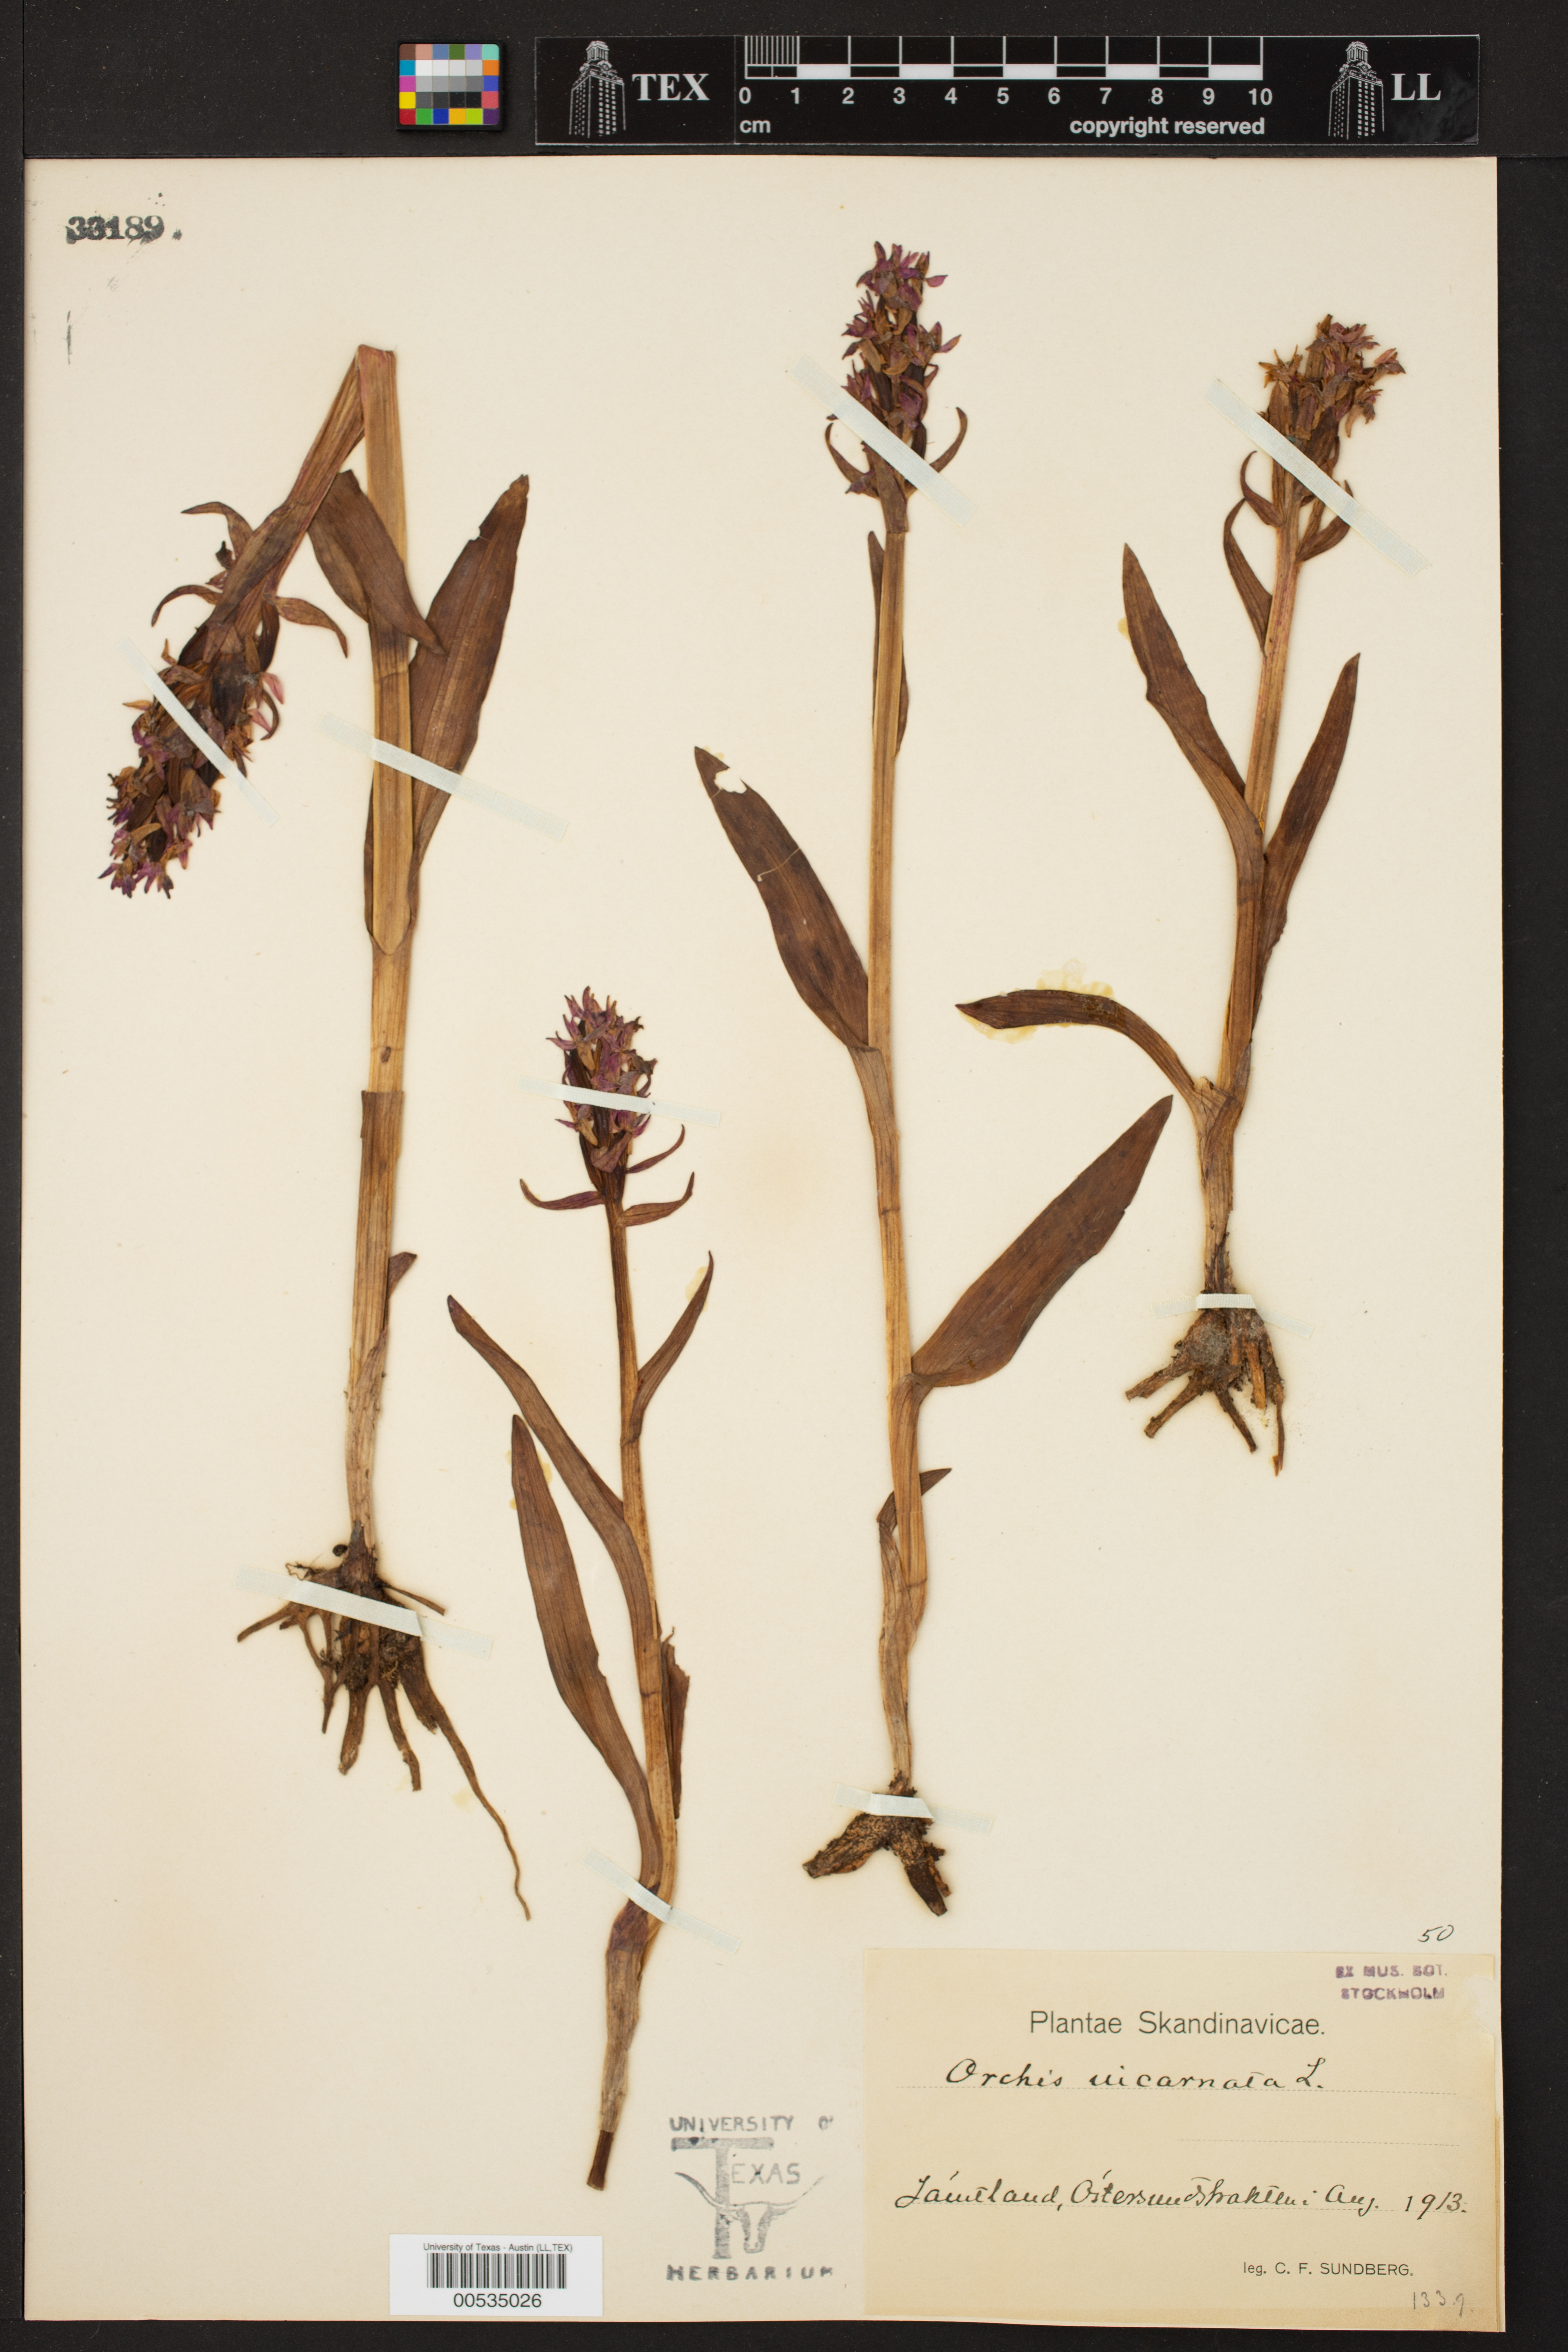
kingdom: Plantae
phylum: Tracheophyta
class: Liliopsida
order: Asparagales
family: Orchidaceae
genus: Dactylorhiza
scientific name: Dactylorhiza
